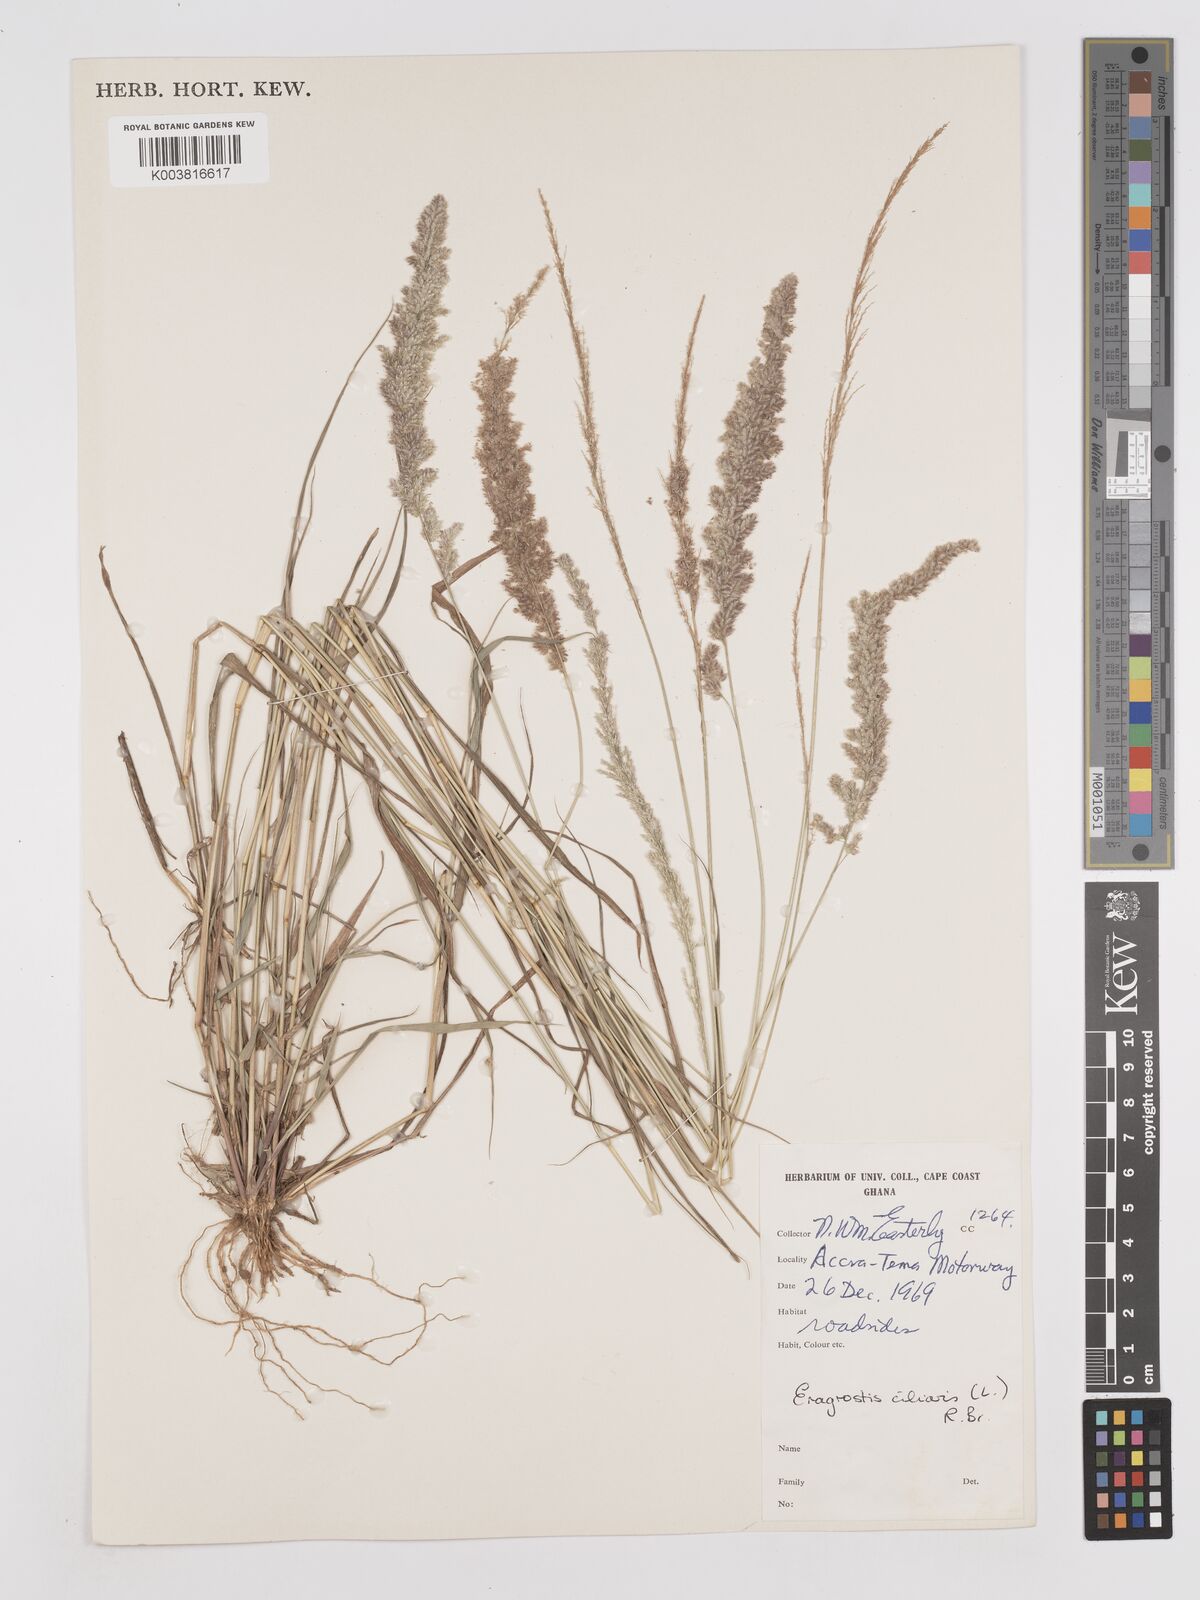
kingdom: Plantae
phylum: Tracheophyta
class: Liliopsida
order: Poales
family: Poaceae
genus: Eragrostis
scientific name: Eragrostis ciliaris
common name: Gophertail lovegrass
